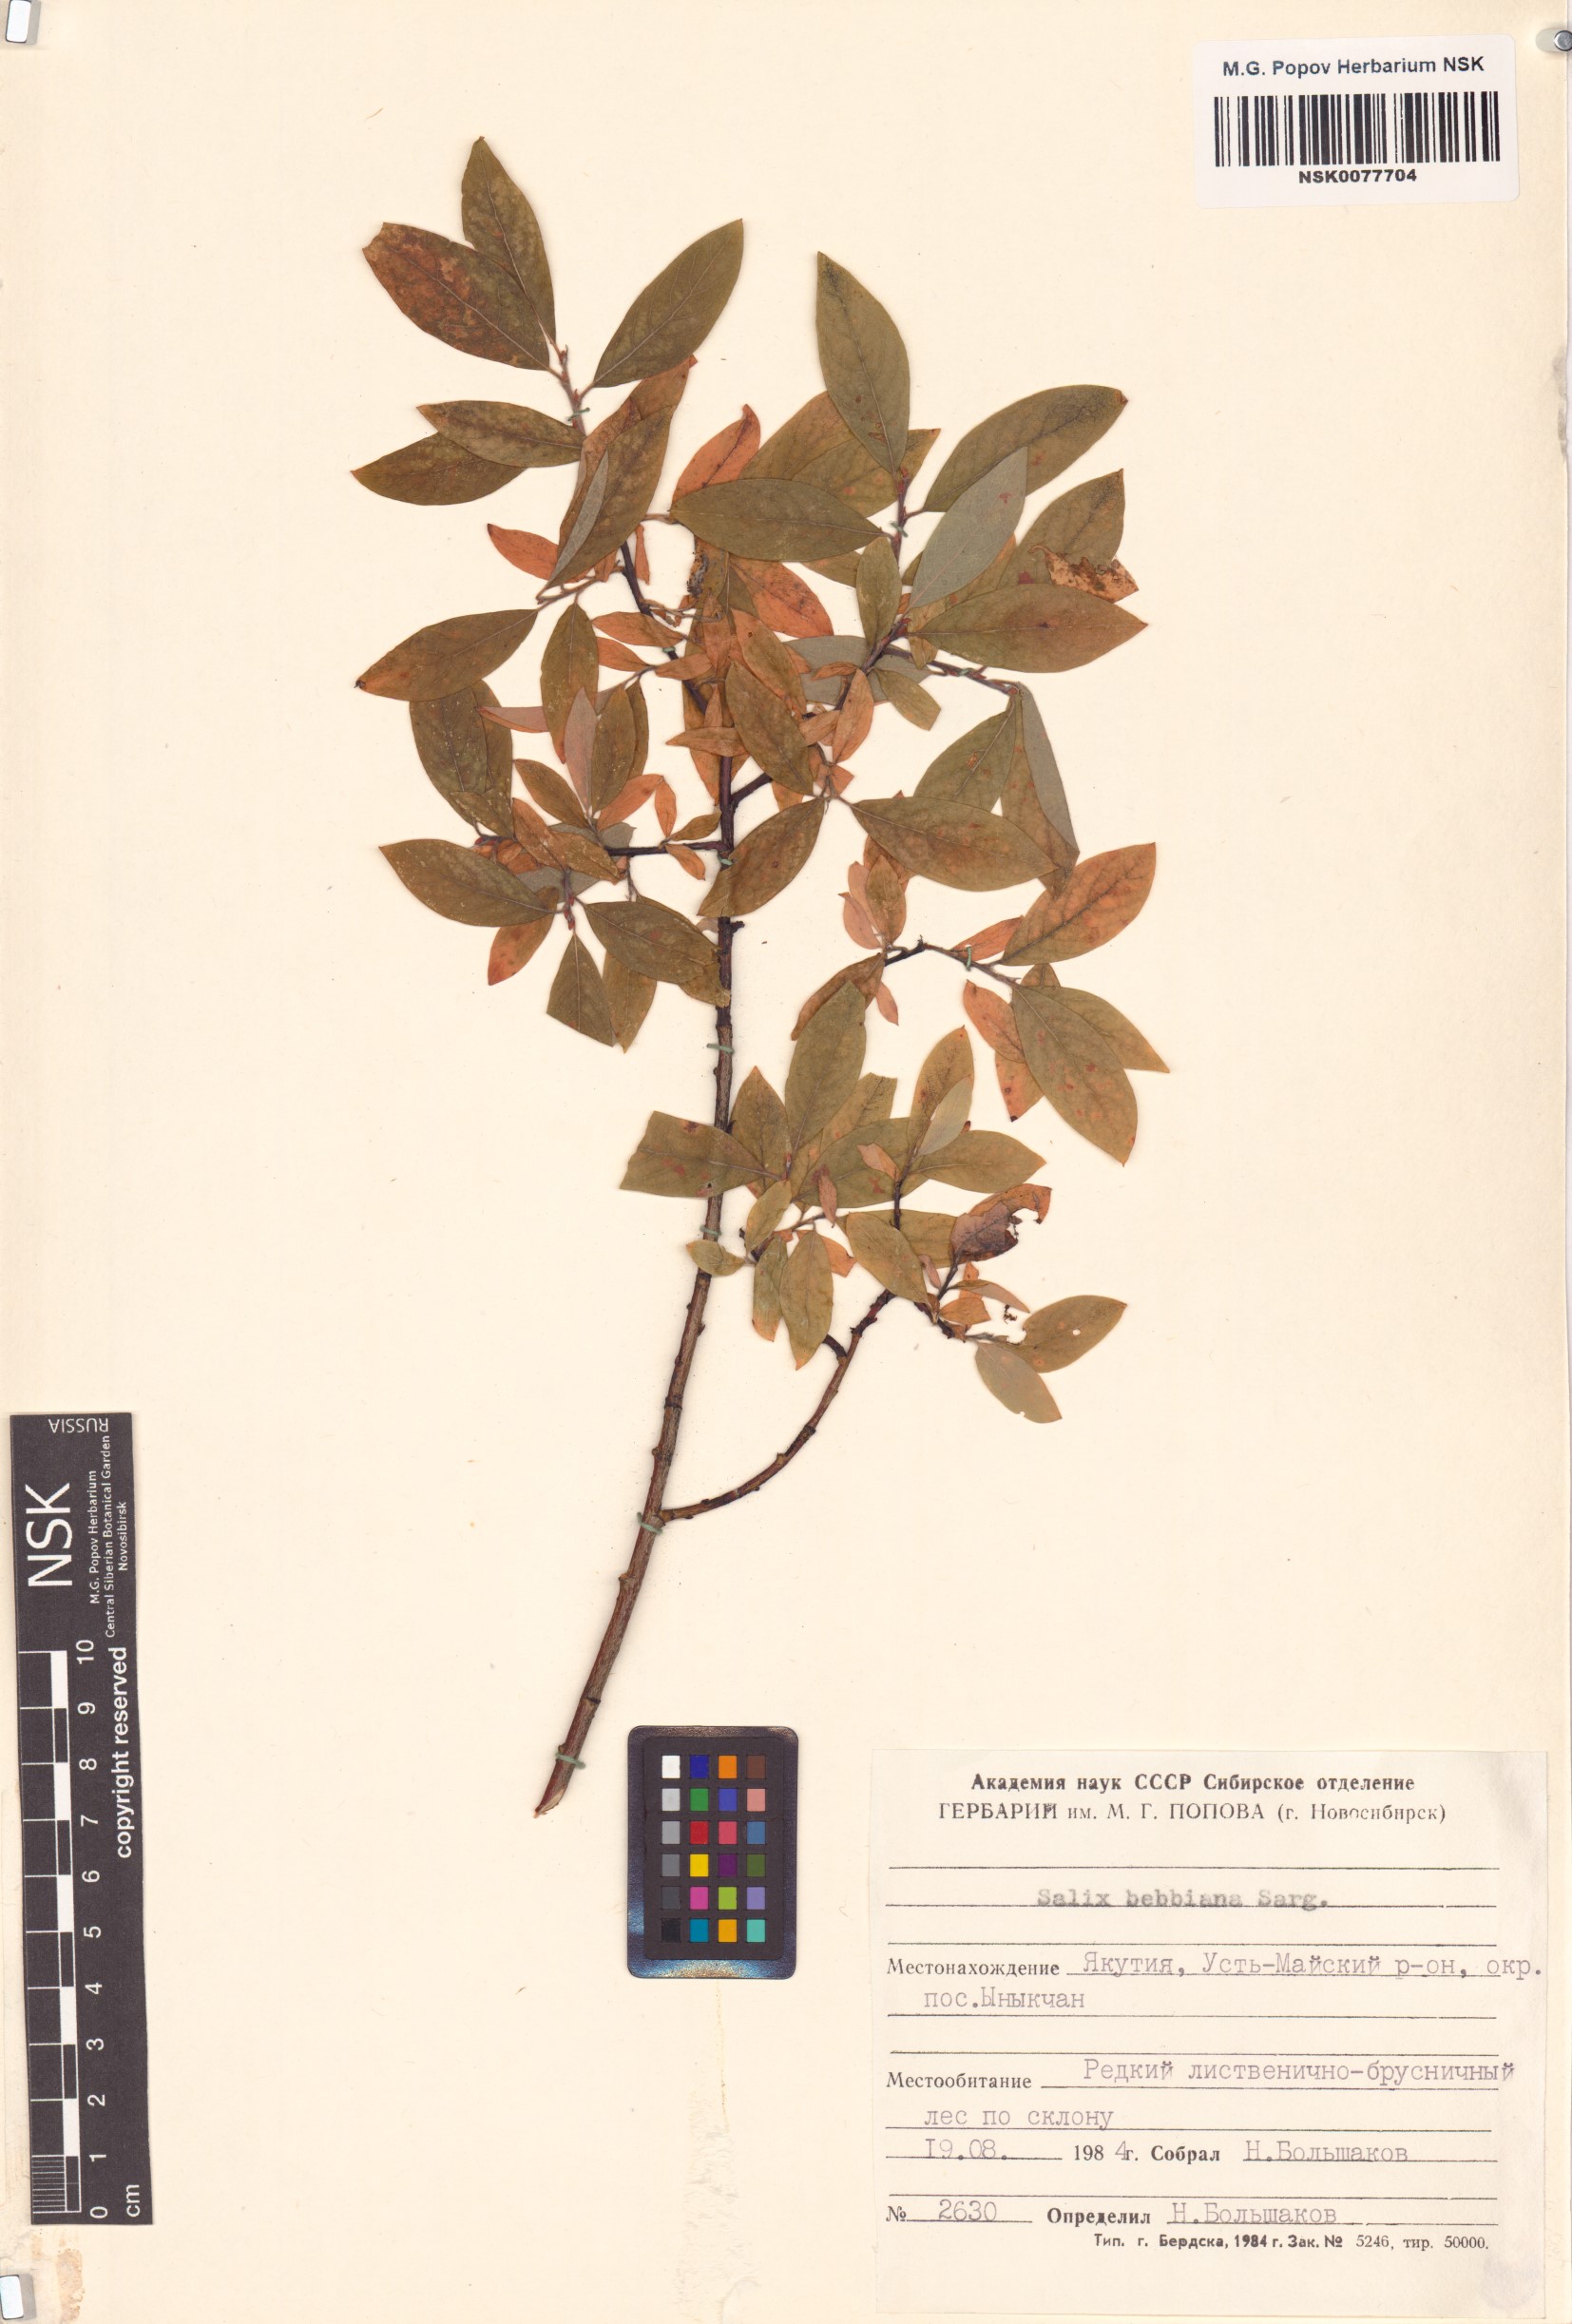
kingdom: Plantae
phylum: Tracheophyta
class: Magnoliopsida
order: Malpighiales
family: Salicaceae
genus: Salix
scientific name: Salix bebbiana
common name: Bebb's willow
